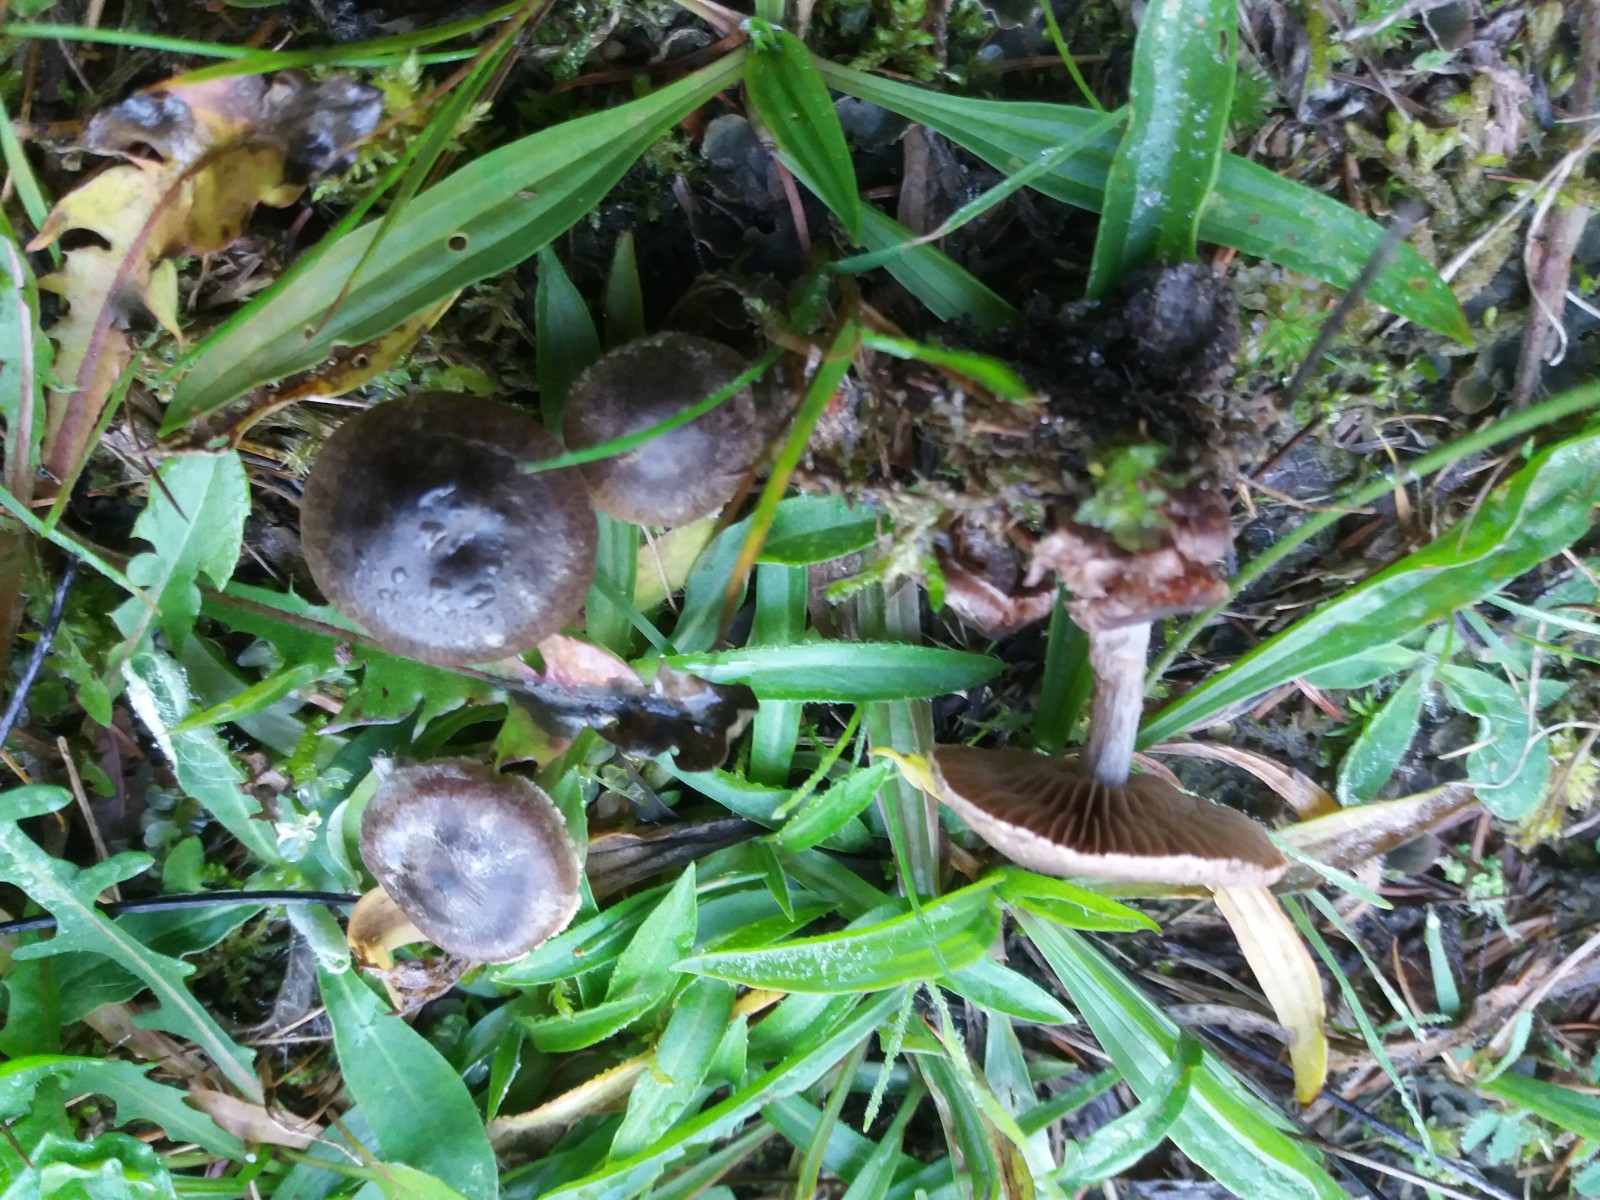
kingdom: Fungi
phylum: Basidiomycota
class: Agaricomycetes
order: Agaricales
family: Cortinariaceae
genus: Cortinarius
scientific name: Cortinarius
